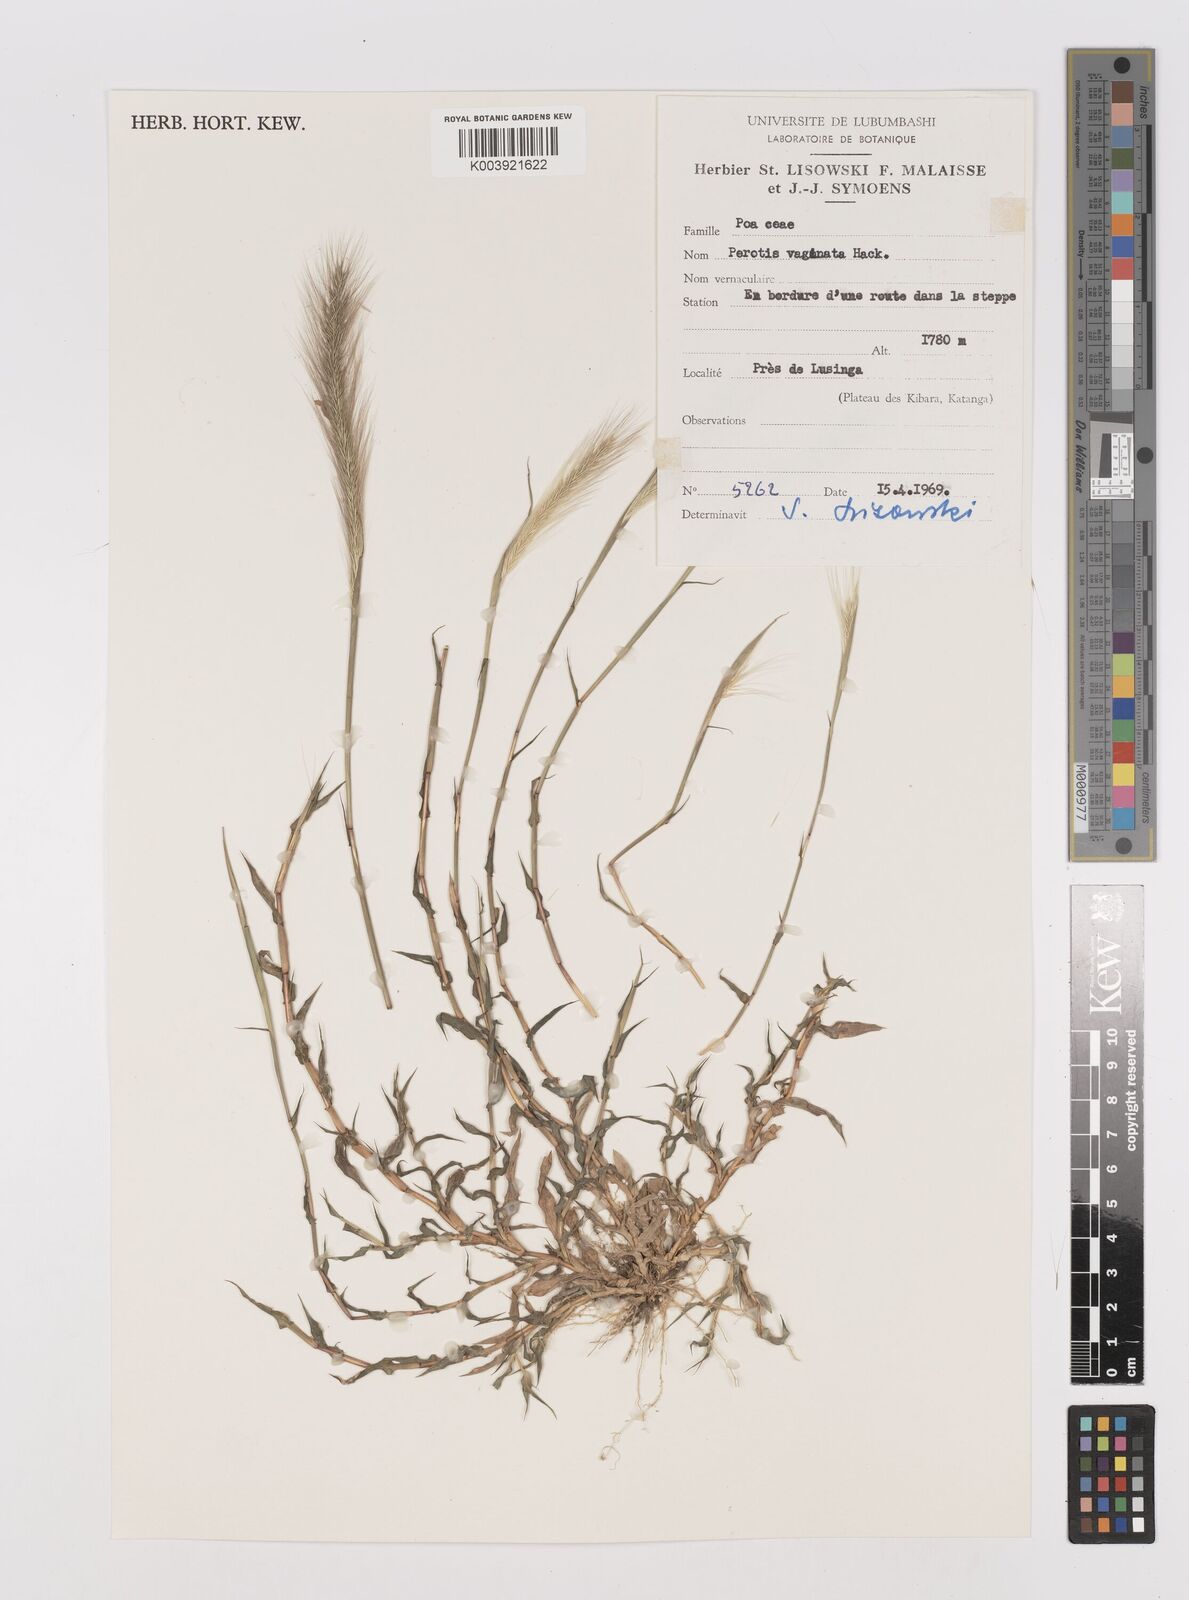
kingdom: Plantae
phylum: Tracheophyta
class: Liliopsida
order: Poales
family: Poaceae
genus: Perotis
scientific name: Perotis vaginata
